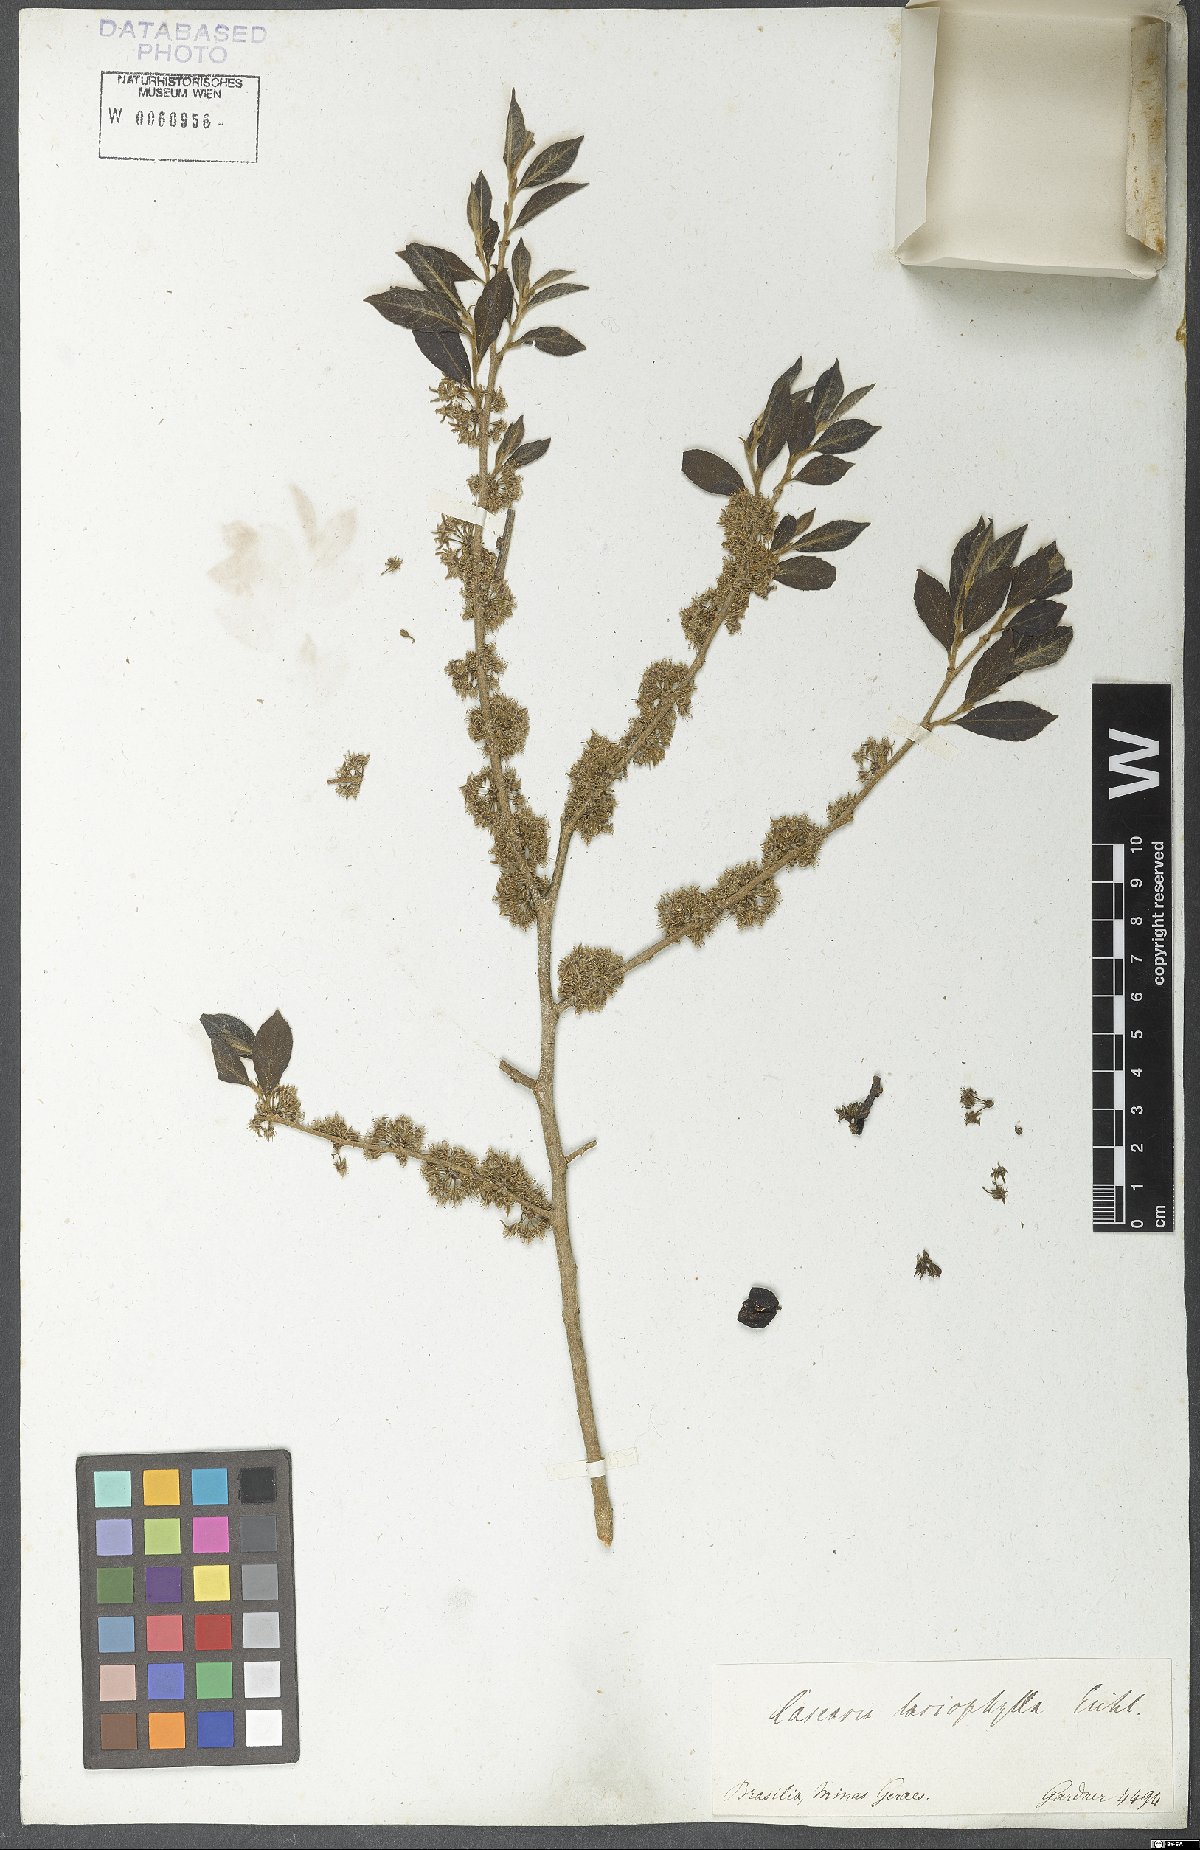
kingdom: Plantae
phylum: Tracheophyta
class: Magnoliopsida
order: Malpighiales
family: Salicaceae
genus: Casearia
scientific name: Casearia lasiophylla
